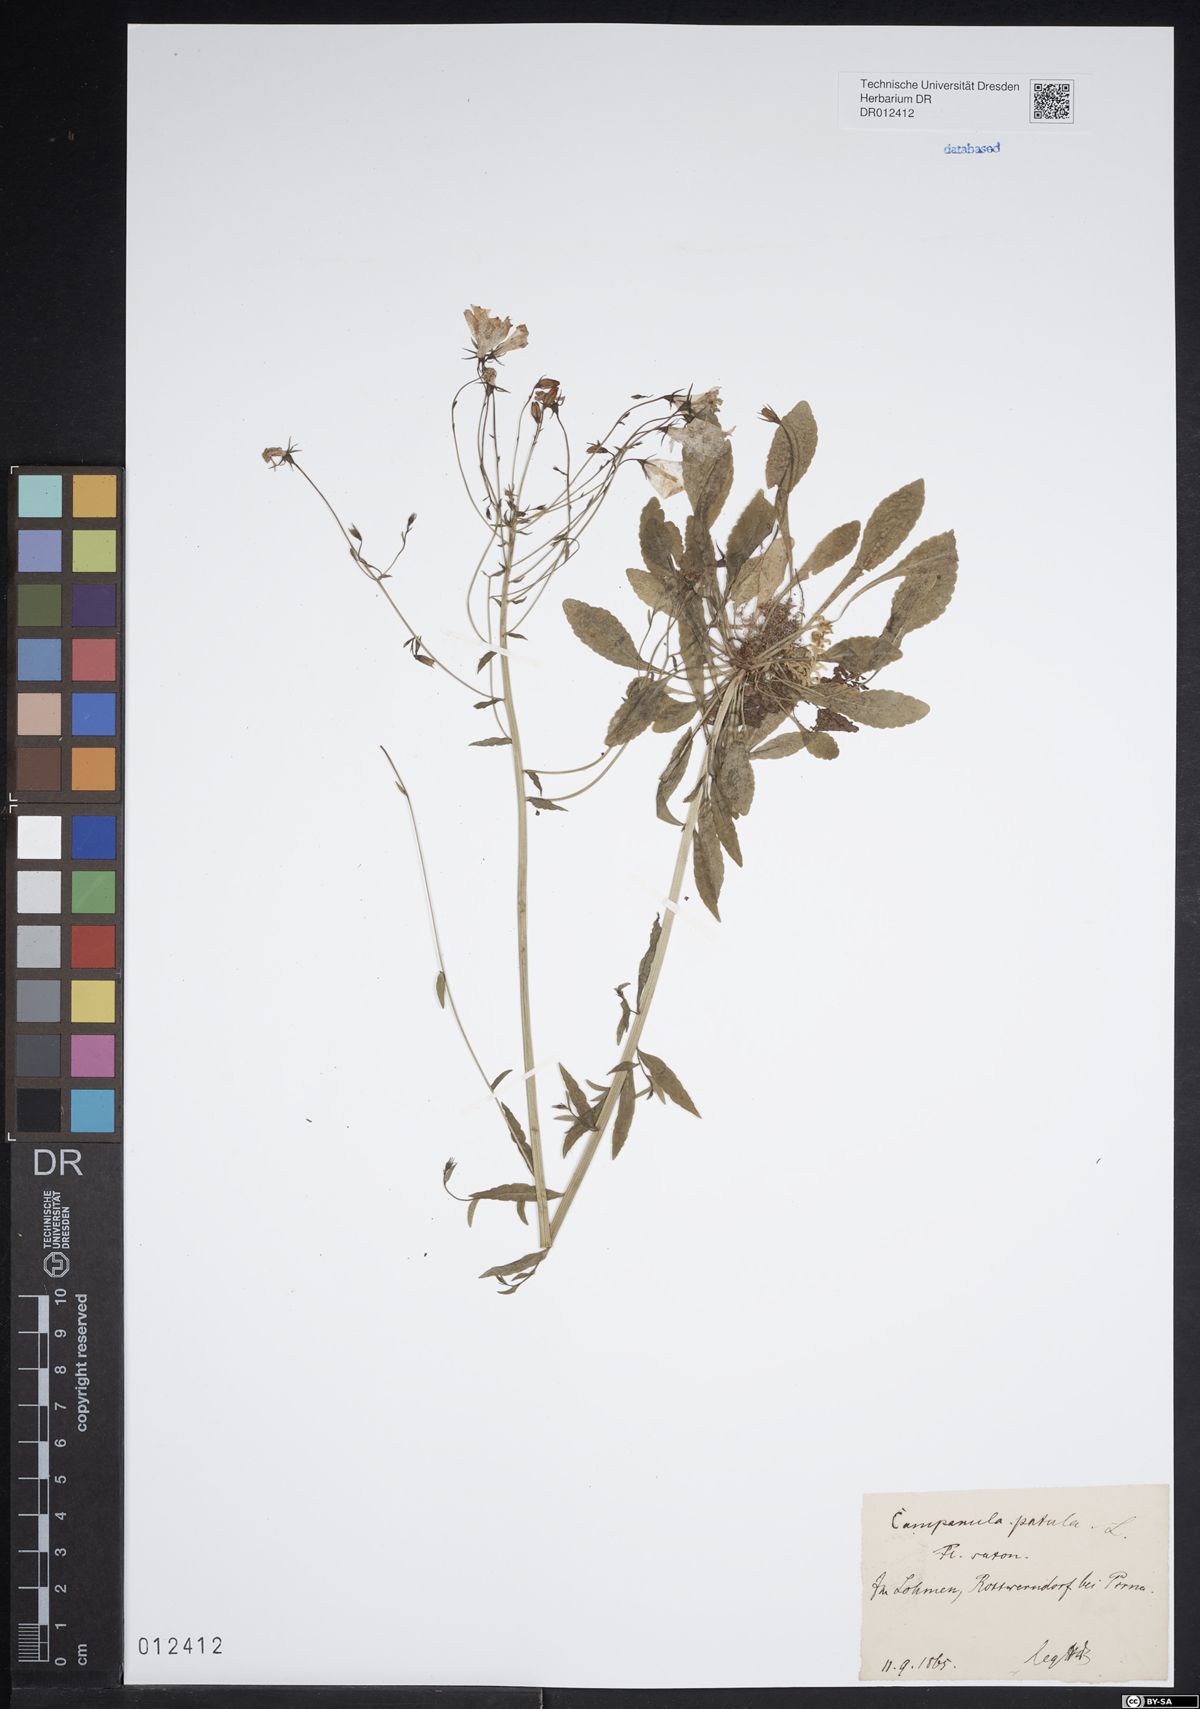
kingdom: Plantae
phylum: Tracheophyta
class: Magnoliopsida
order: Asterales
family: Campanulaceae
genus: Campanula
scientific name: Campanula patula
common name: Spreading bellflower
